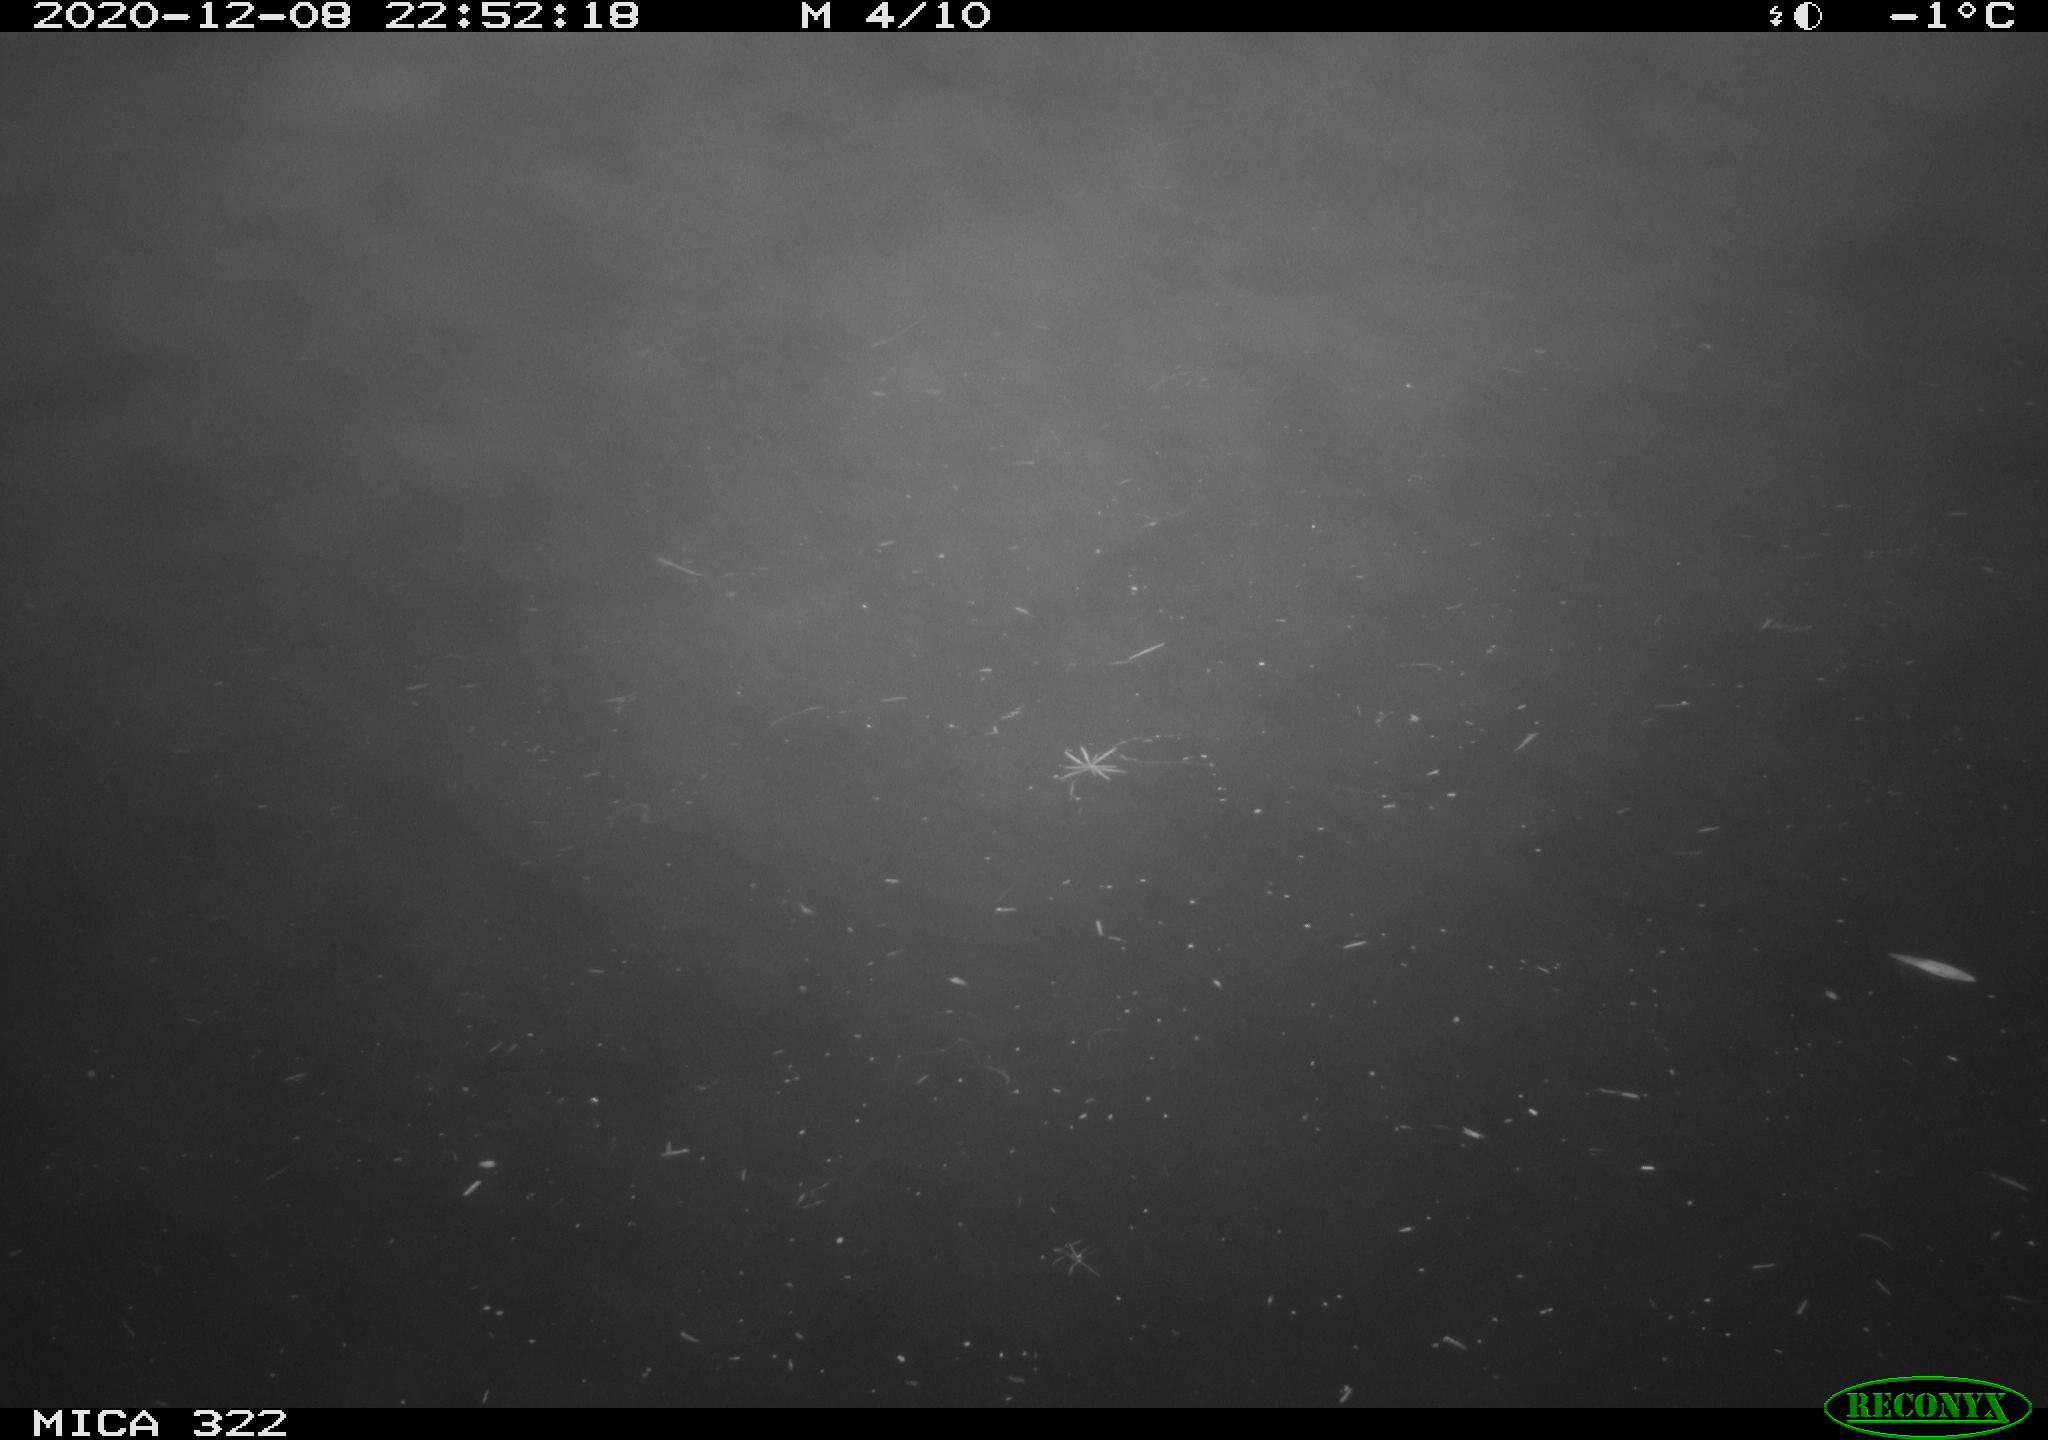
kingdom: Animalia
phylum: Chordata
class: Mammalia
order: Rodentia
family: Muridae
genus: Rattus
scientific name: Rattus norvegicus
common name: Brown rat
